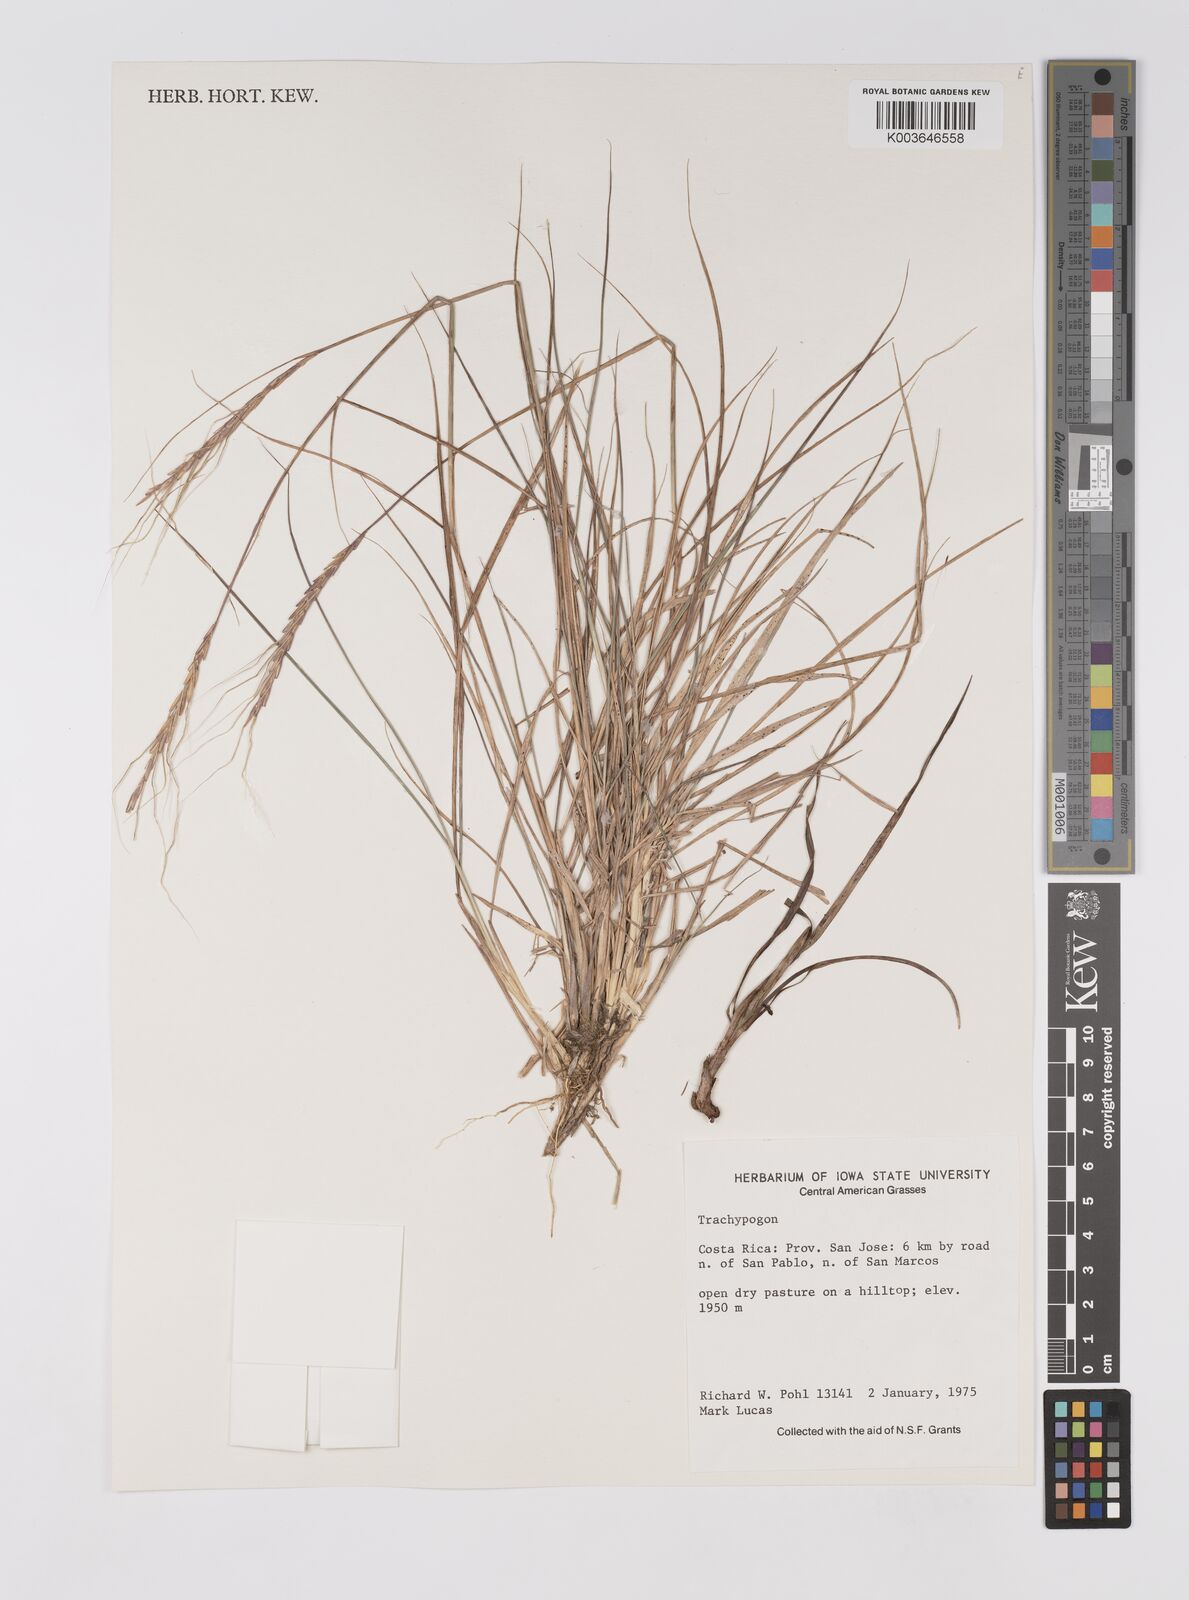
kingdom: Plantae
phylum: Tracheophyta
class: Liliopsida
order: Poales
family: Poaceae
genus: Trachypogon
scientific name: Trachypogon
